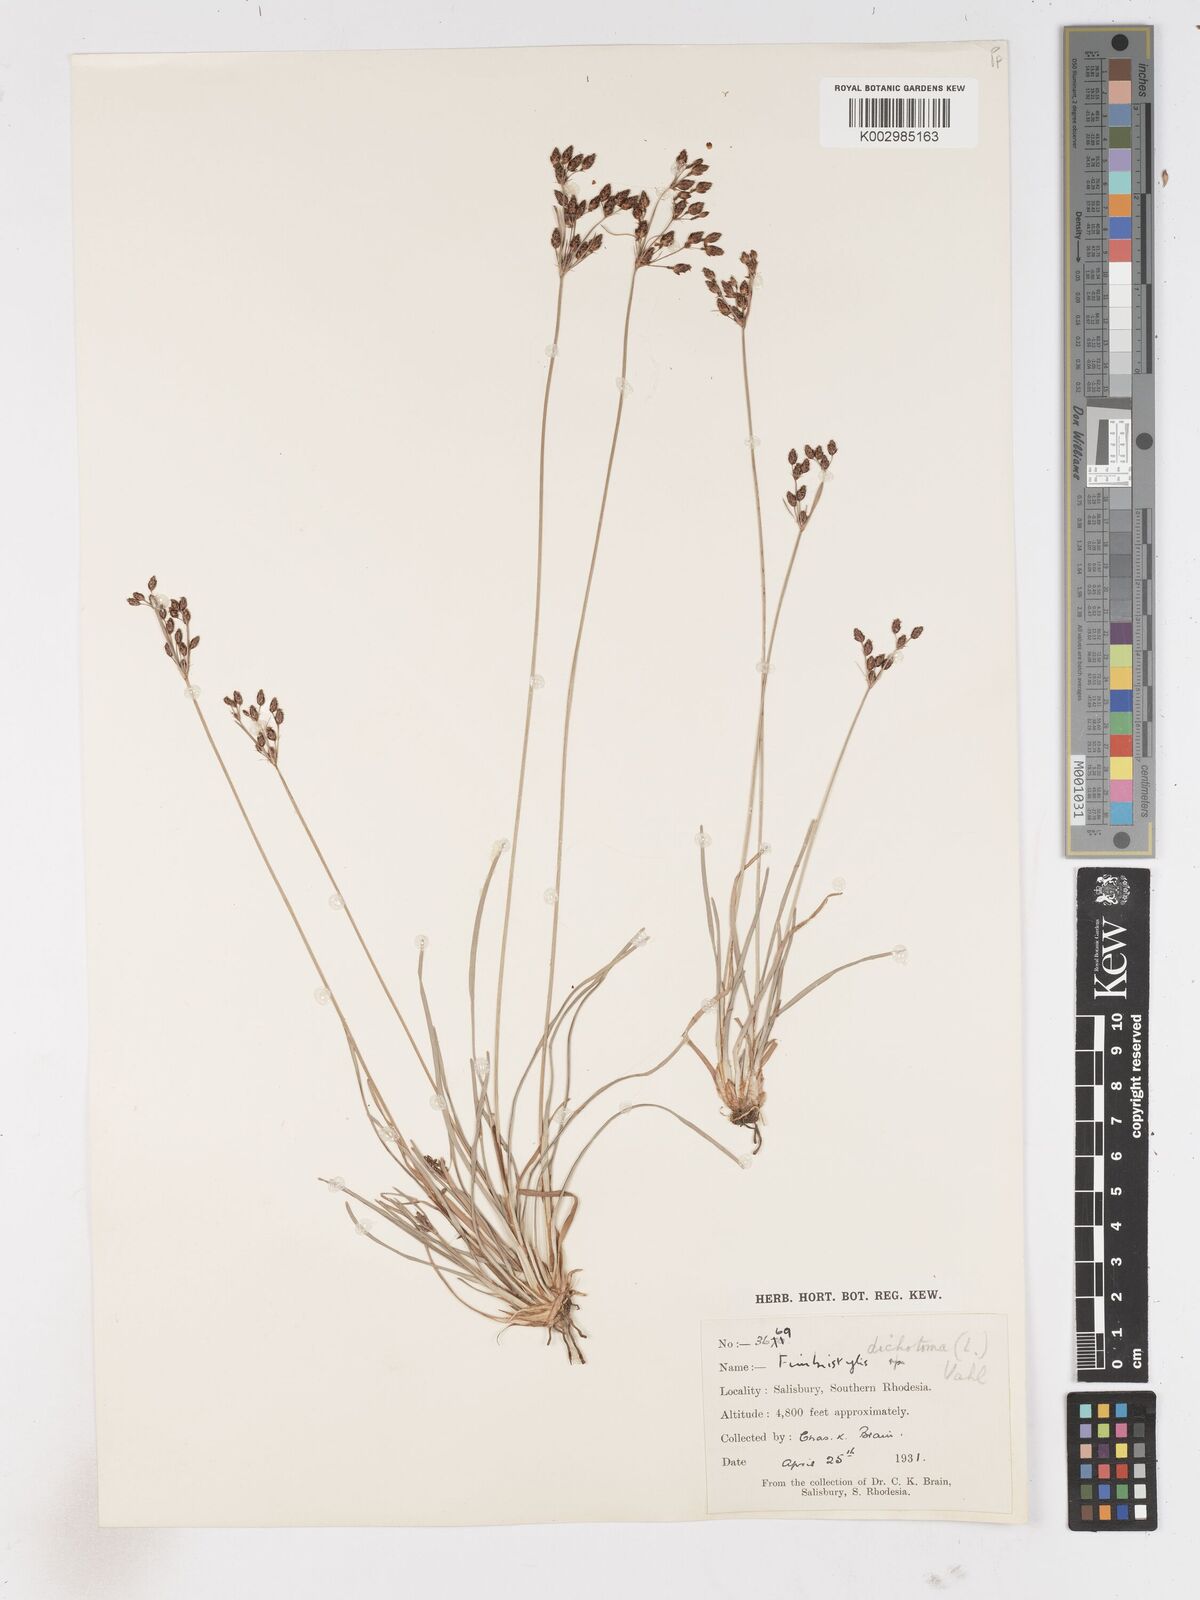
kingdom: Plantae
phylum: Tracheophyta
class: Liliopsida
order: Poales
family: Cyperaceae
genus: Fimbristylis
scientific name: Fimbristylis dichotoma
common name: Forked fimbry
